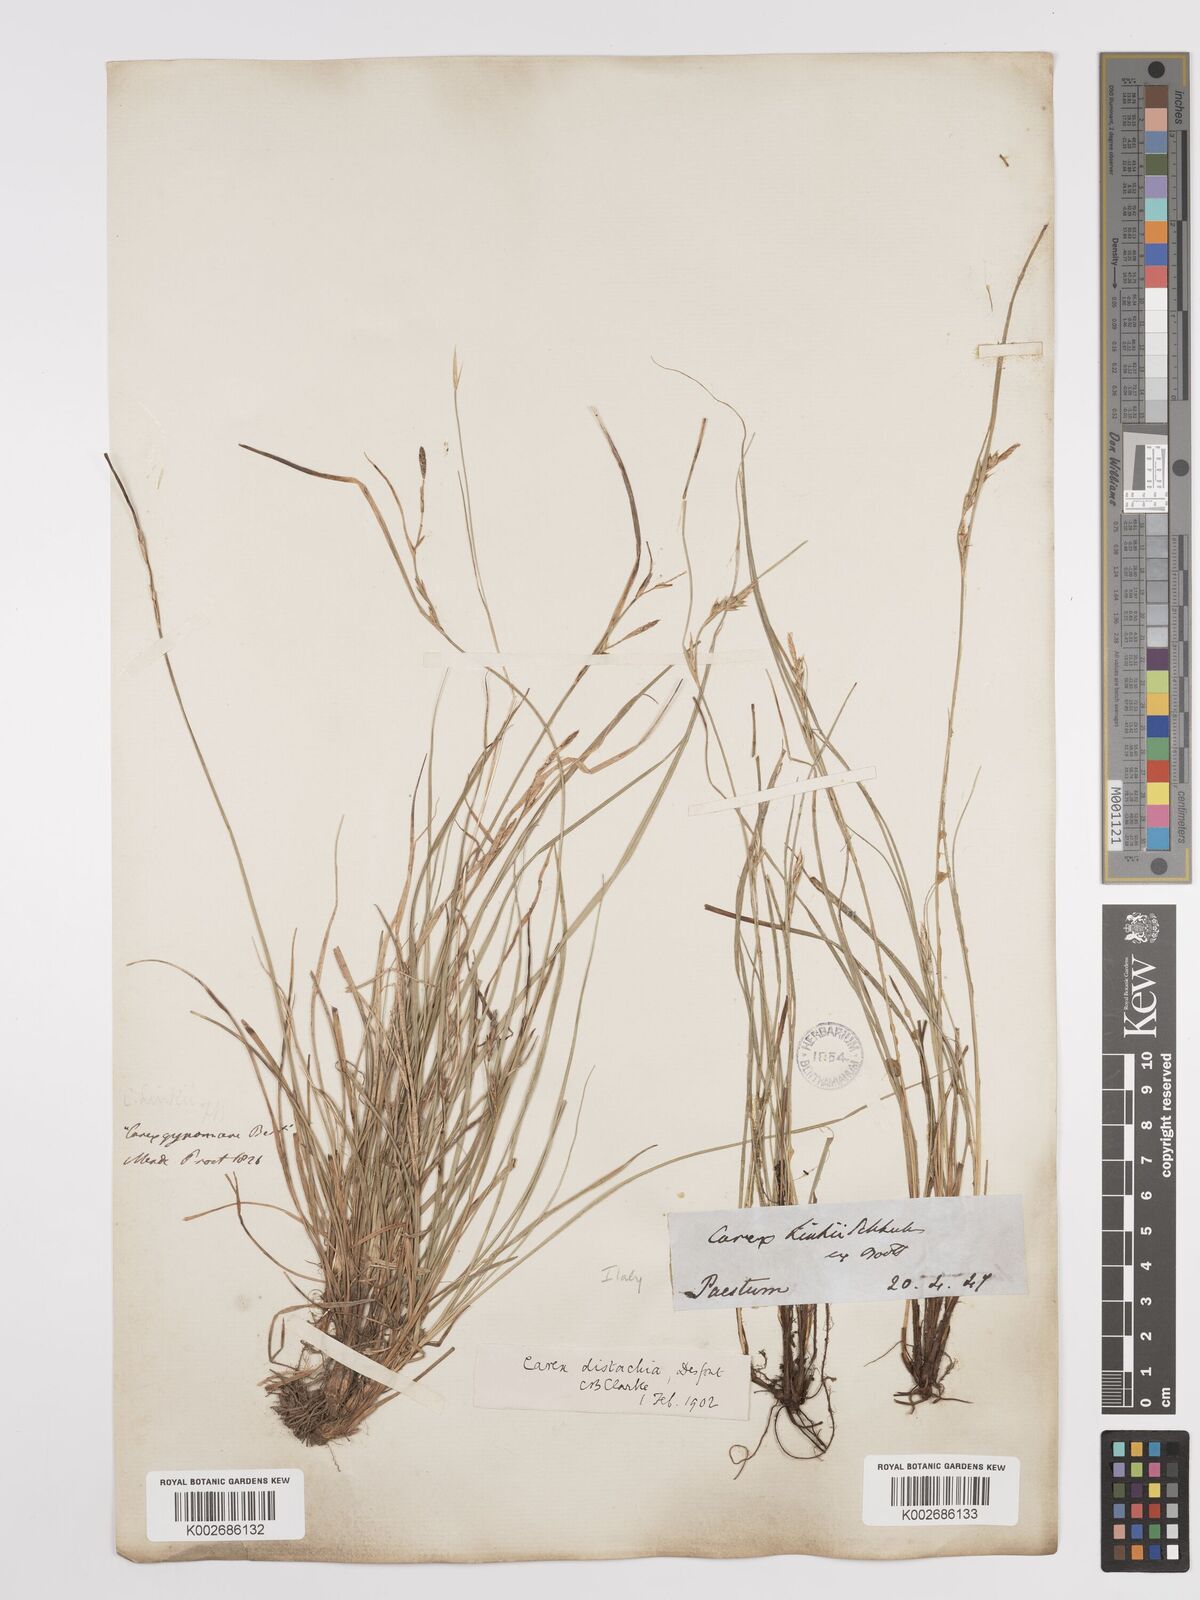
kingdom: Plantae
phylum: Tracheophyta
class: Liliopsida
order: Poales
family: Cyperaceae
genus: Carex
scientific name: Carex distachya
